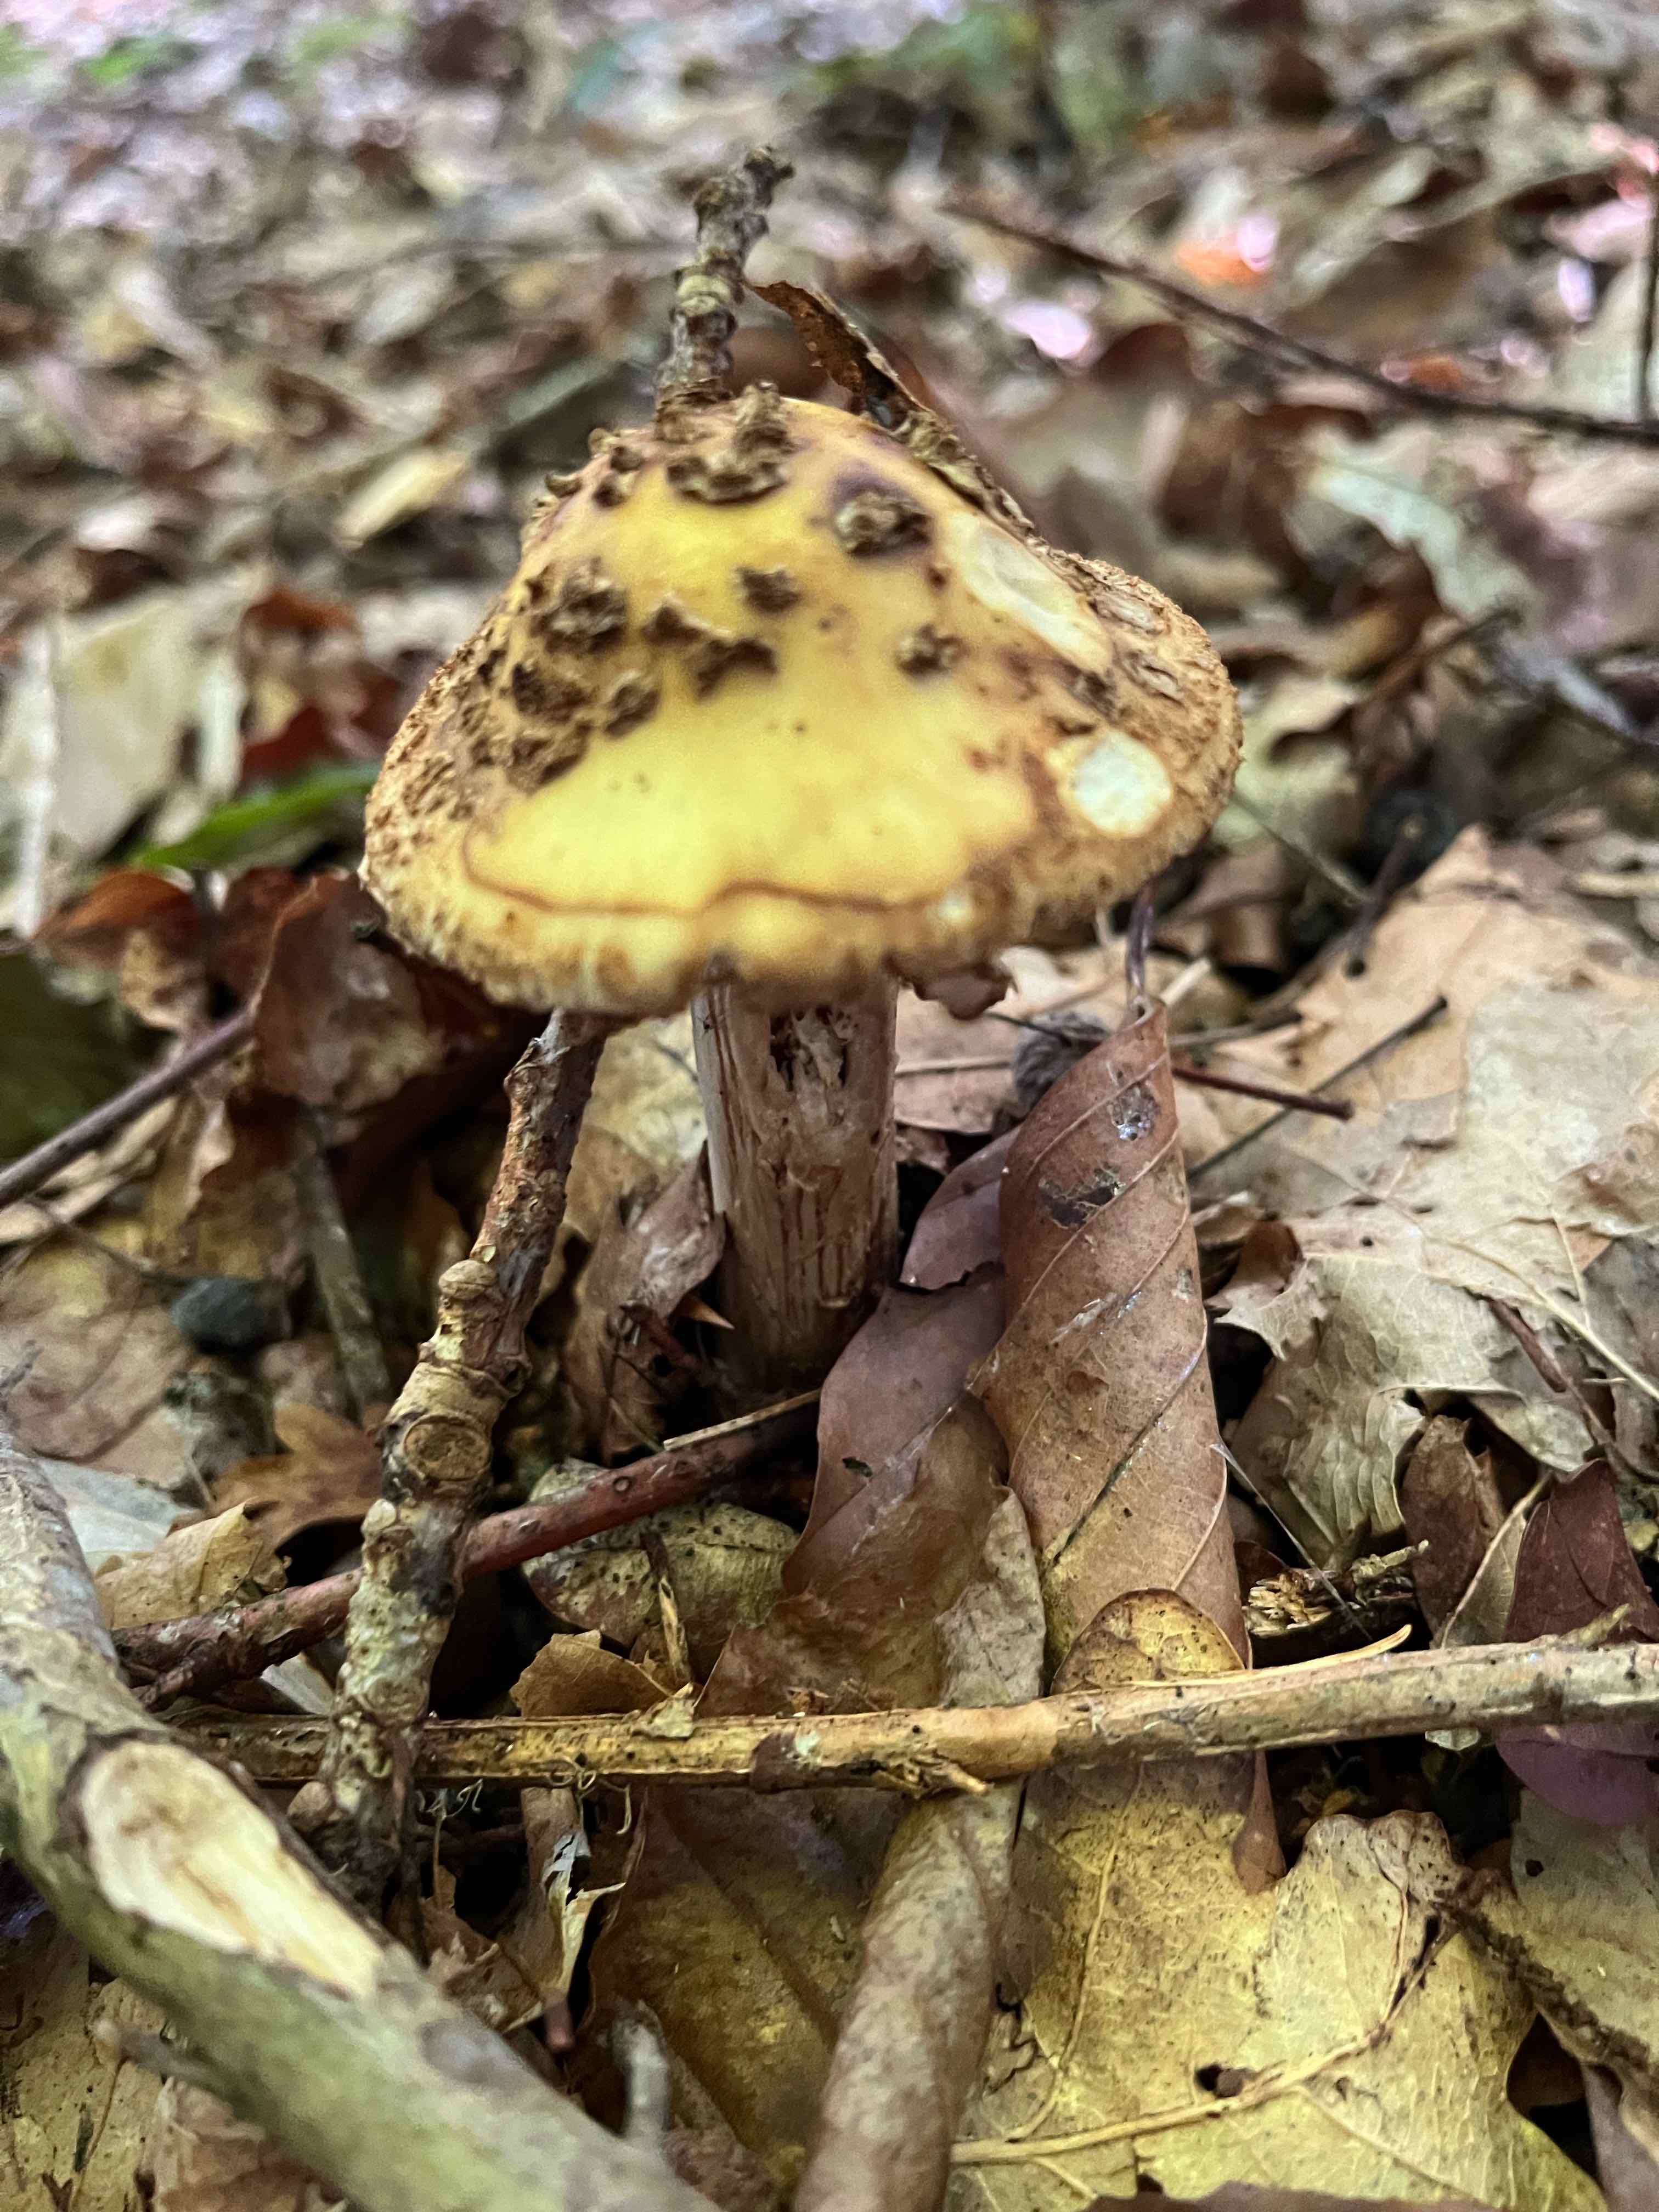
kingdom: Fungi
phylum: Basidiomycota
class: Agaricomycetes
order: Agaricales
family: Amanitaceae
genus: Amanita
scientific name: Amanita ceciliae
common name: stor kam-fluesvamp
